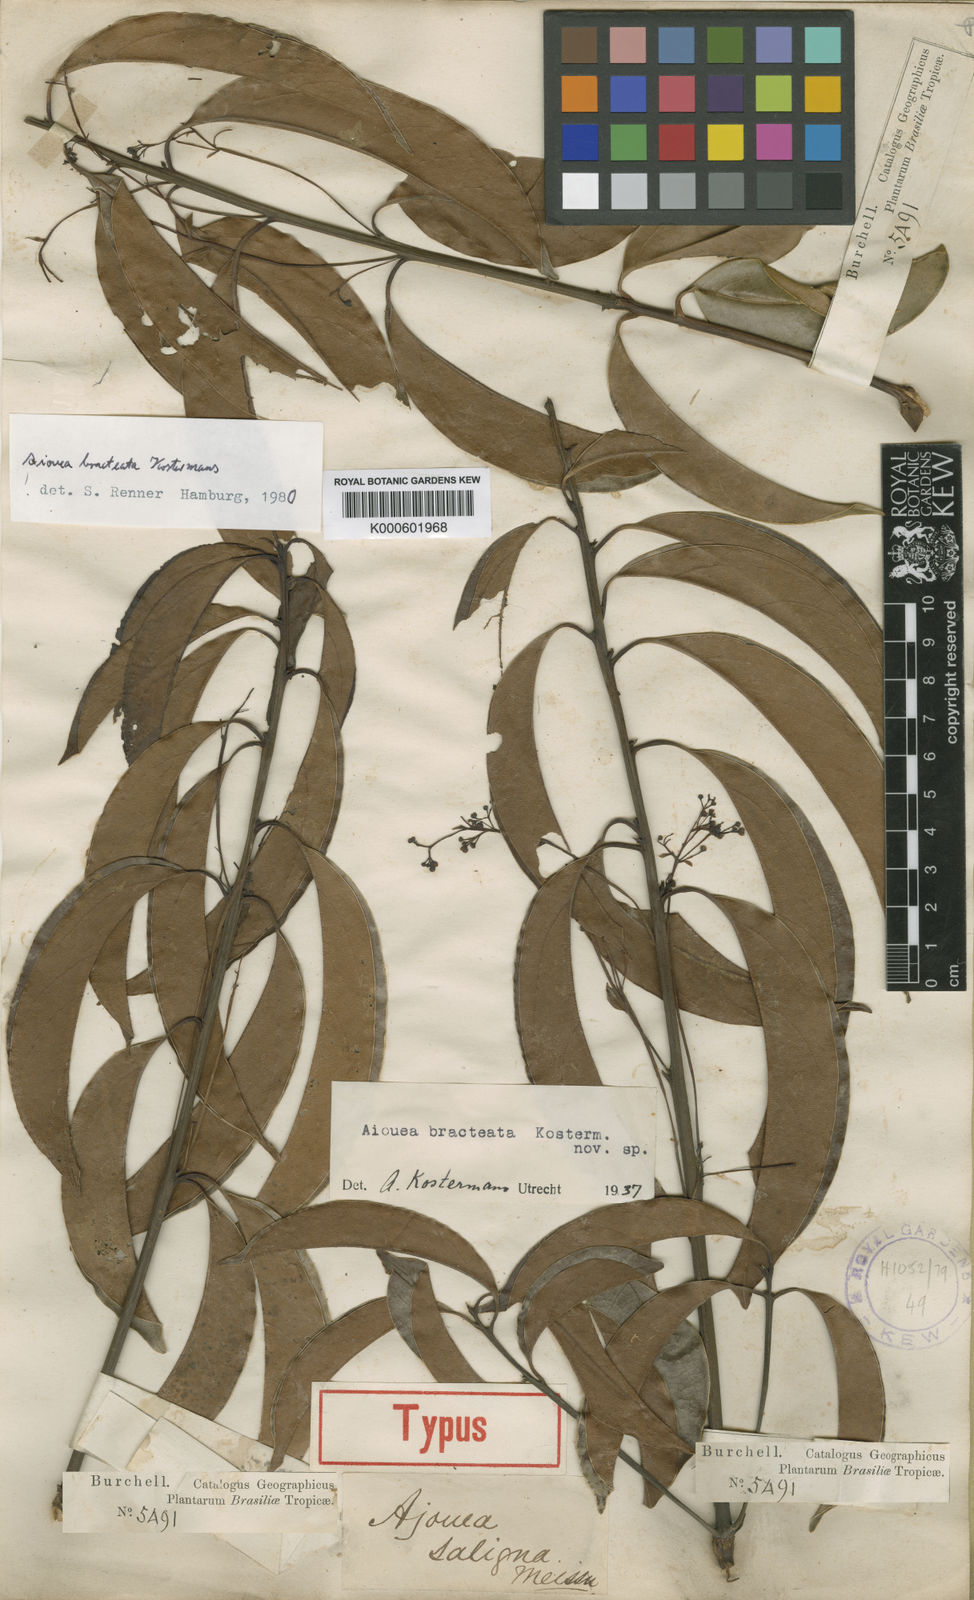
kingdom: Plantae
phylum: Tracheophyta
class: Magnoliopsida
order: Laurales
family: Lauraceae
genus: Aiouea
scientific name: Aiouea bracteata
